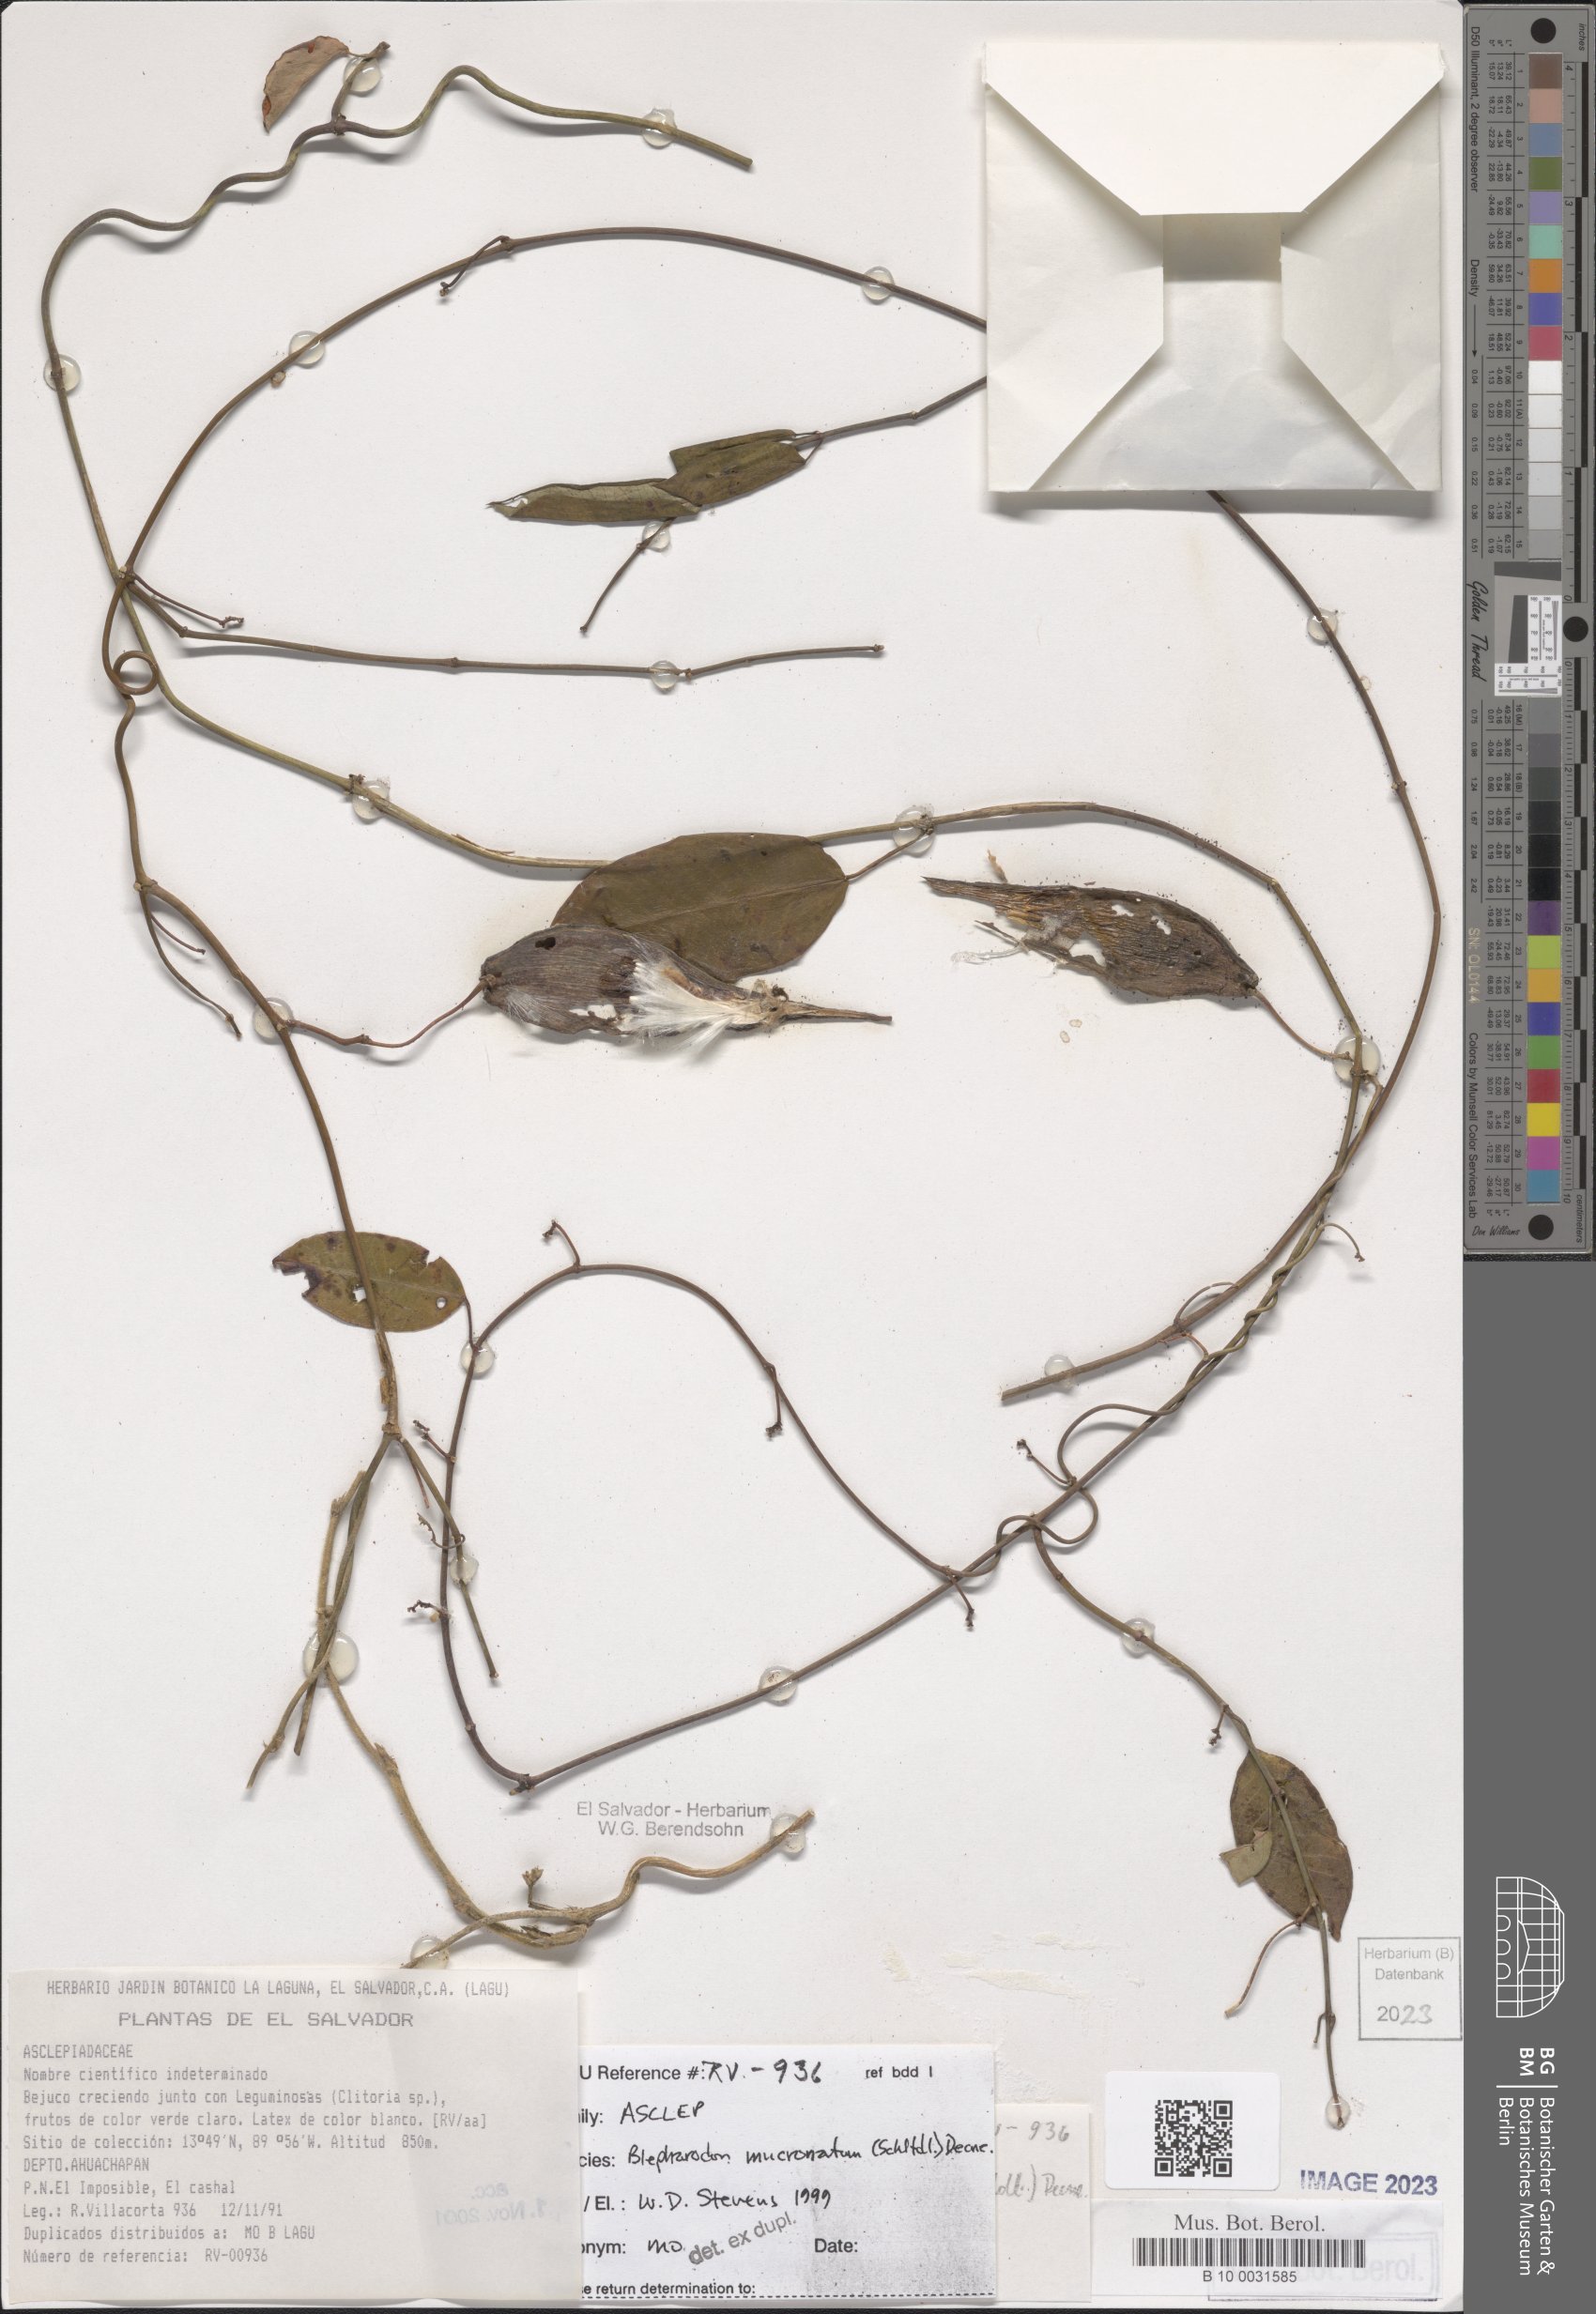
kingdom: Plantae
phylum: Tracheophyta
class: Magnoliopsida
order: Gentianales
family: Apocynaceae
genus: Vailia
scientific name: Vailia anomala
